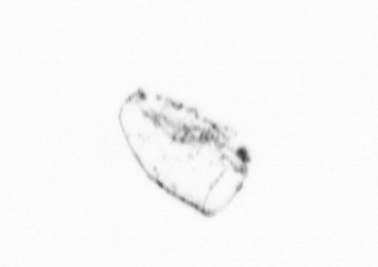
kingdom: Chromista
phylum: Ochrophyta
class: Bacillariophyceae
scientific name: Bacillariophyceae
